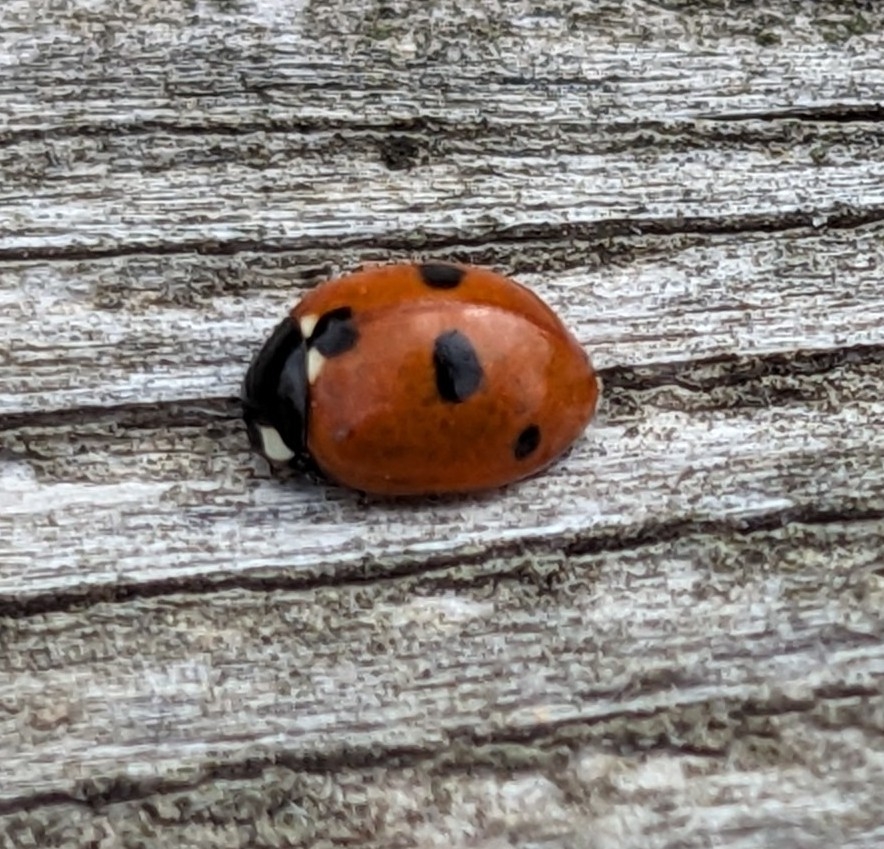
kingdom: Animalia
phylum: Arthropoda
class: Insecta
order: Coleoptera
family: Coccinellidae
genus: Coccinella
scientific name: Coccinella quinquepunctata
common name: Femplettet mariehøne
